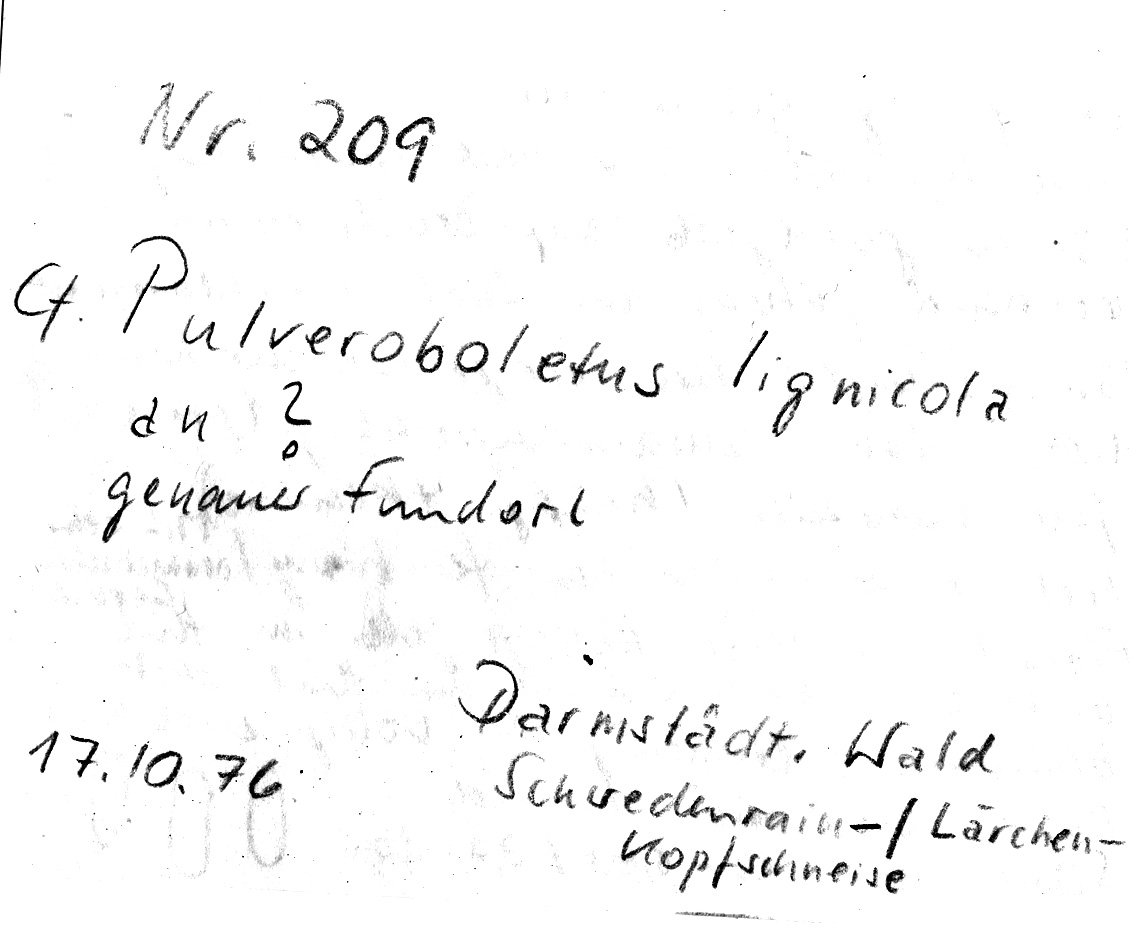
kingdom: Fungi
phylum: Basidiomycota
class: Agaricomycetes
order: Boletales
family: Boletaceae
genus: Buchwaldoboletus
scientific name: Buchwaldoboletus lignicola
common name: Wood bolete
